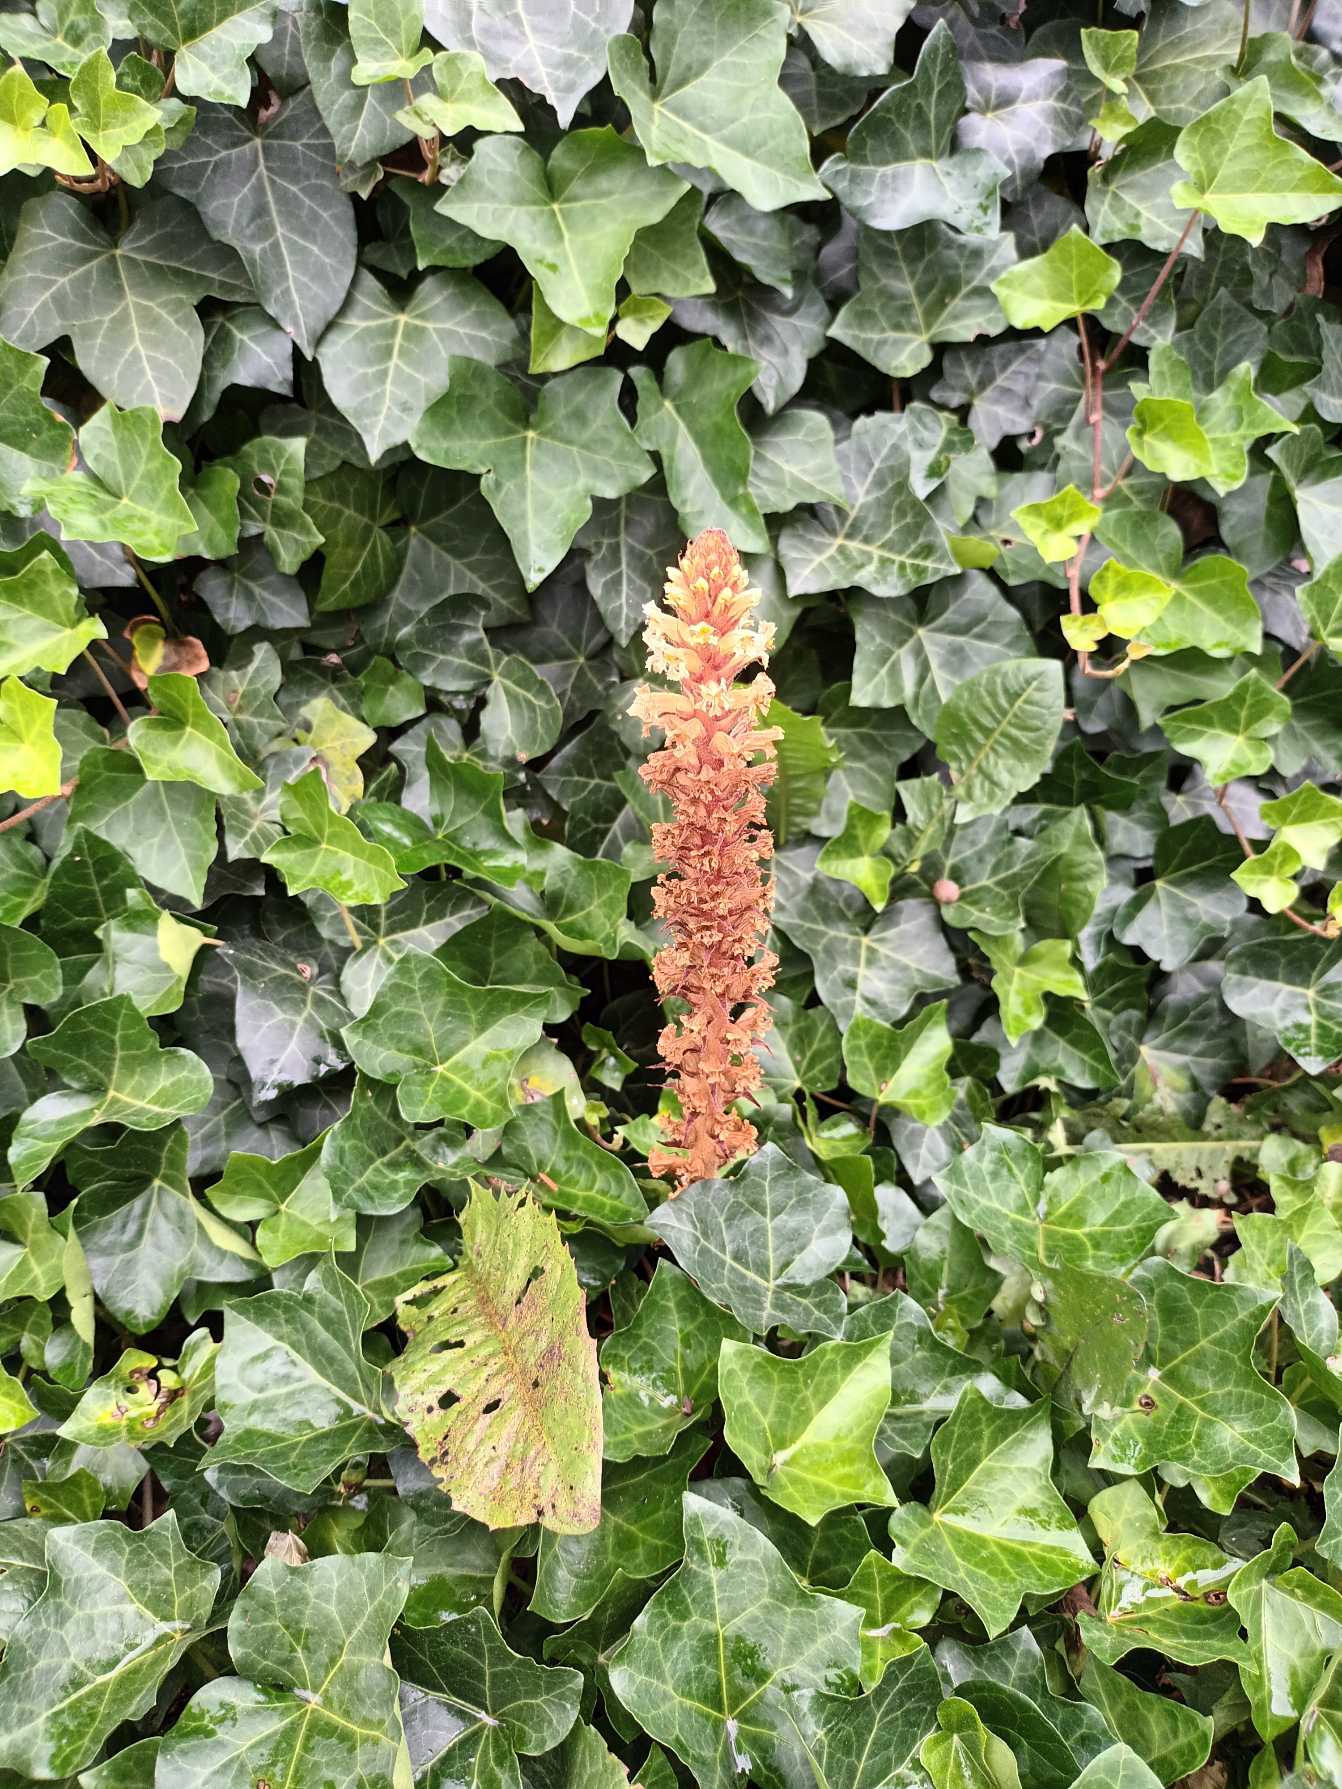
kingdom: Plantae
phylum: Tracheophyta
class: Magnoliopsida
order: Lamiales
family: Orobanchaceae
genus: Orobanche
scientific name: Orobanche hederae
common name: Vedbend-gyvelkvæler
